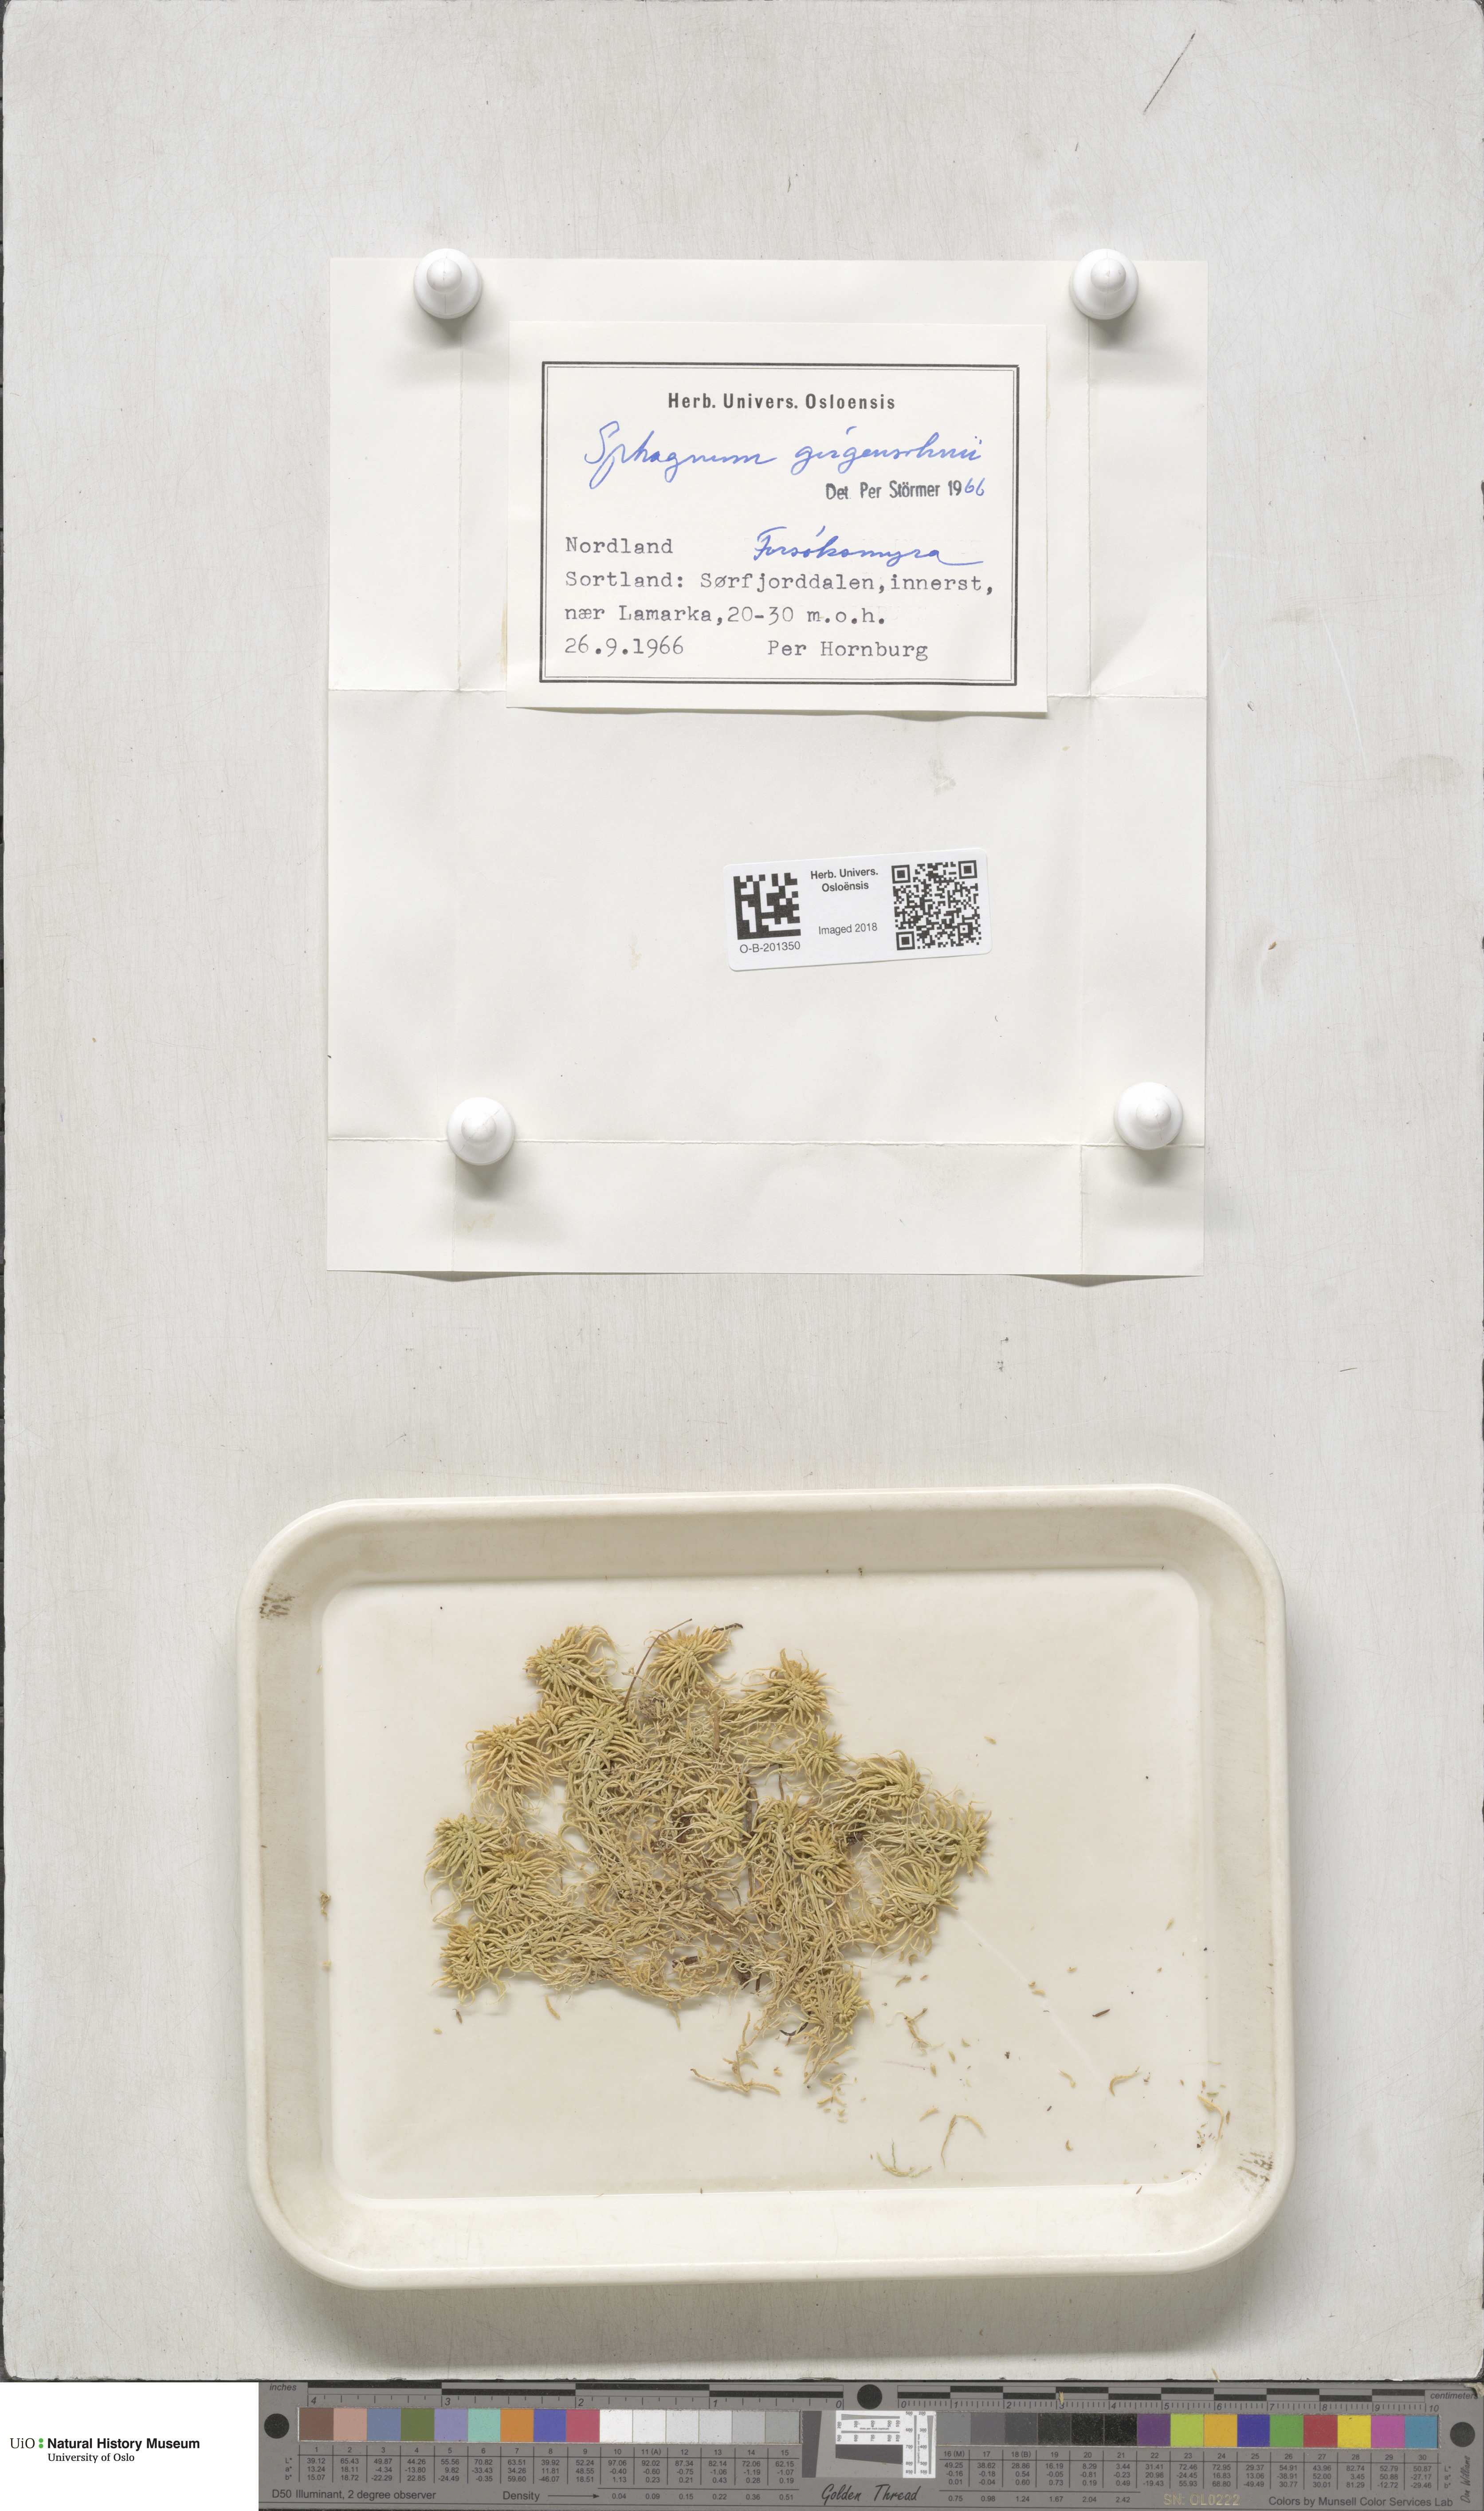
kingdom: Plantae
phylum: Bryophyta
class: Sphagnopsida
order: Sphagnales
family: Sphagnaceae
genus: Sphagnum
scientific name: Sphagnum girgensohnii
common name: Girgensohn's peat moss
